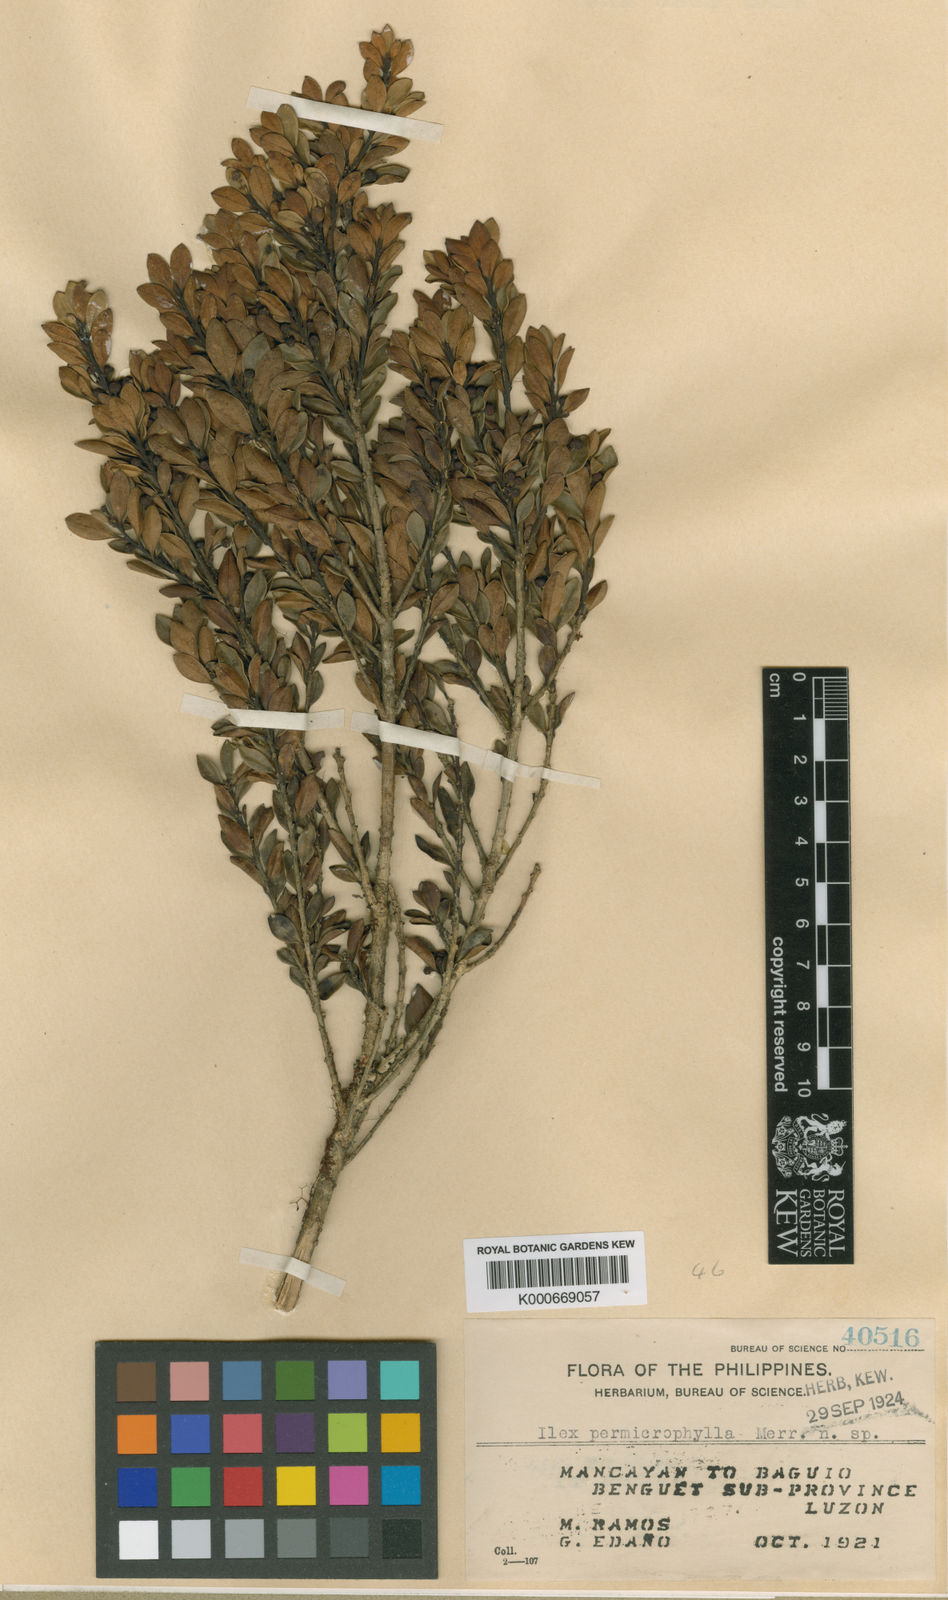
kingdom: Plantae
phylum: Tracheophyta
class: Magnoliopsida
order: Aquifoliales
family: Aquifoliaceae
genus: Ilex
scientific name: Ilex permicrophylla
